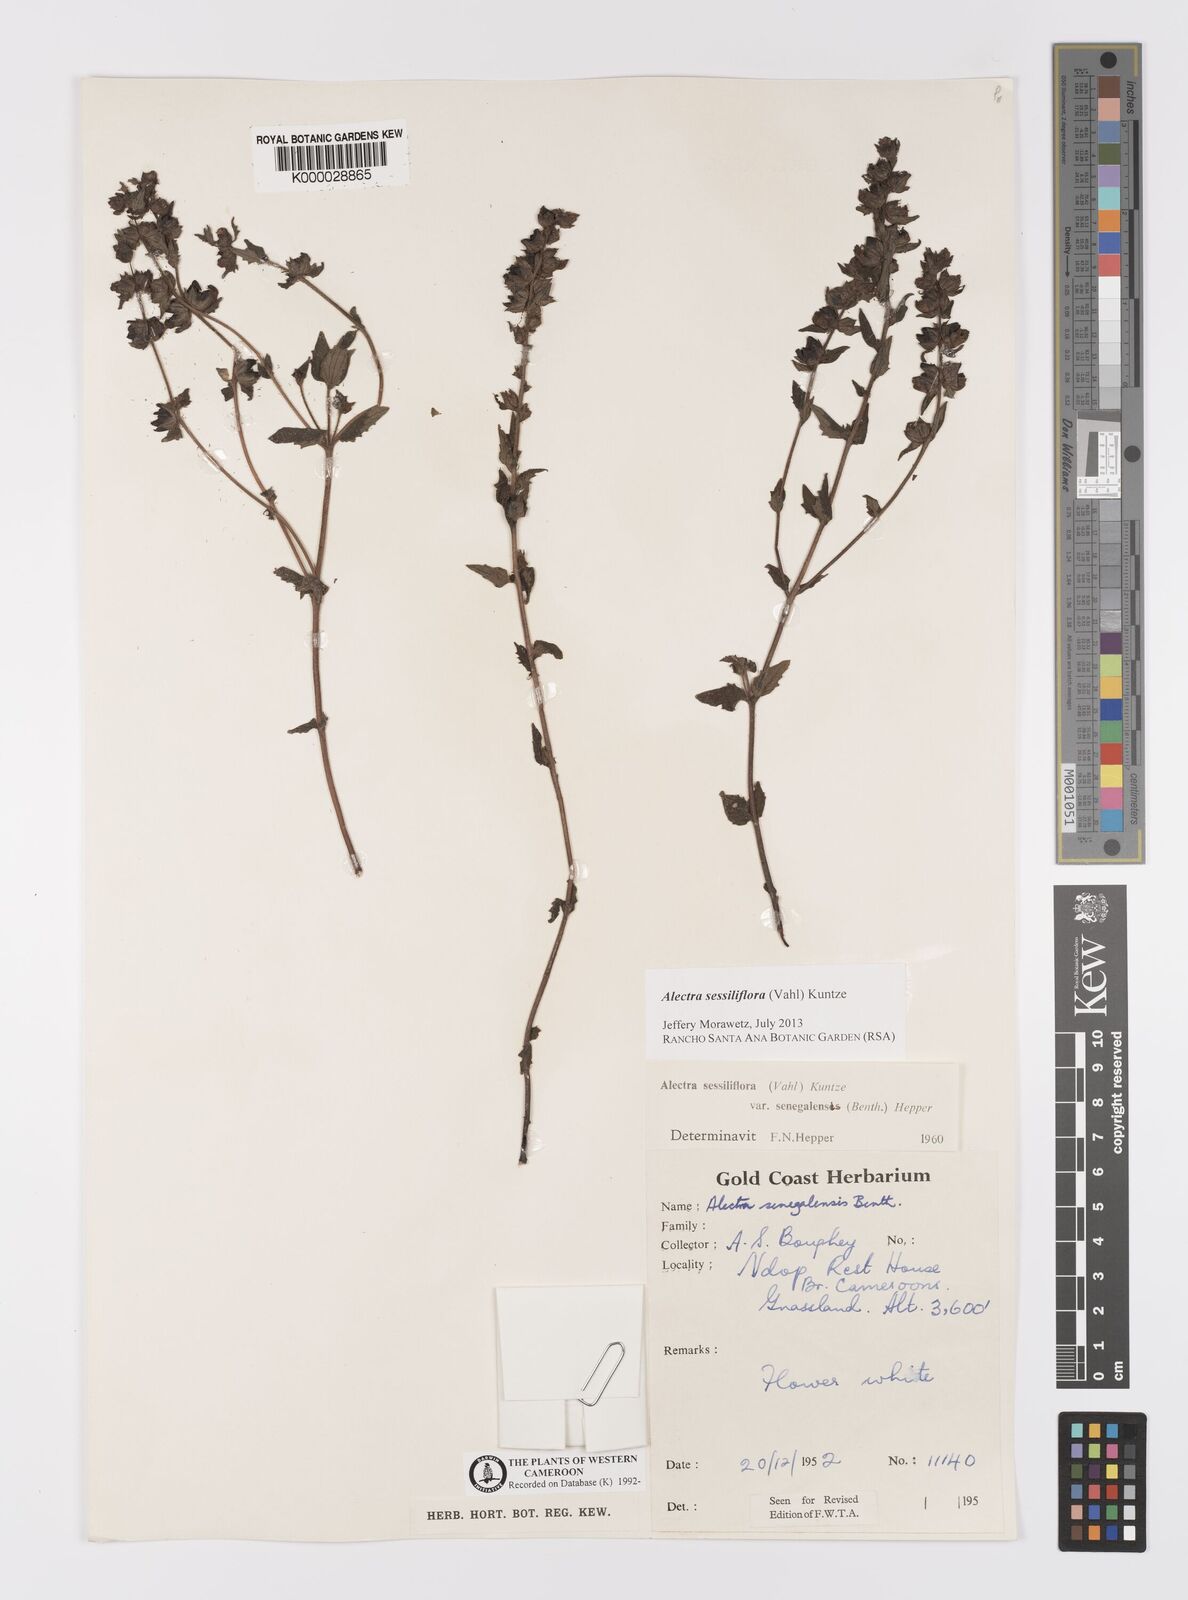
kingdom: Plantae
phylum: Tracheophyta
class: Magnoliopsida
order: Lamiales
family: Orobanchaceae
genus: Alectra
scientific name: Alectra sessiliflora
